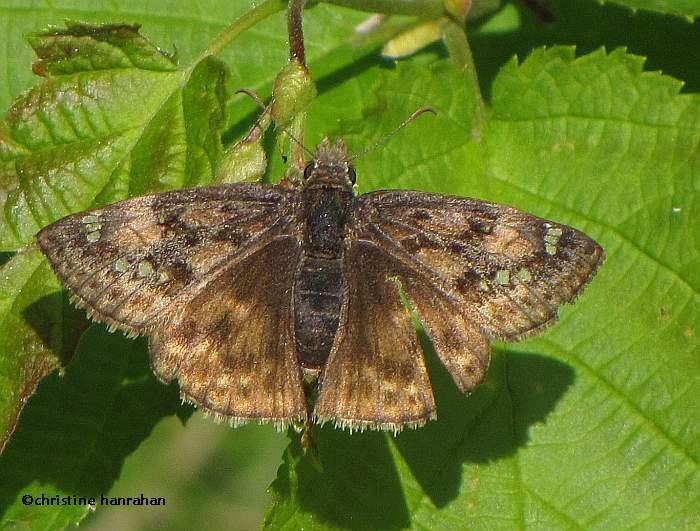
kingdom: Animalia
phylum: Arthropoda
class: Insecta
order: Lepidoptera
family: Hesperiidae
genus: Gesta
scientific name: Gesta
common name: Juvenal's Duskywing
